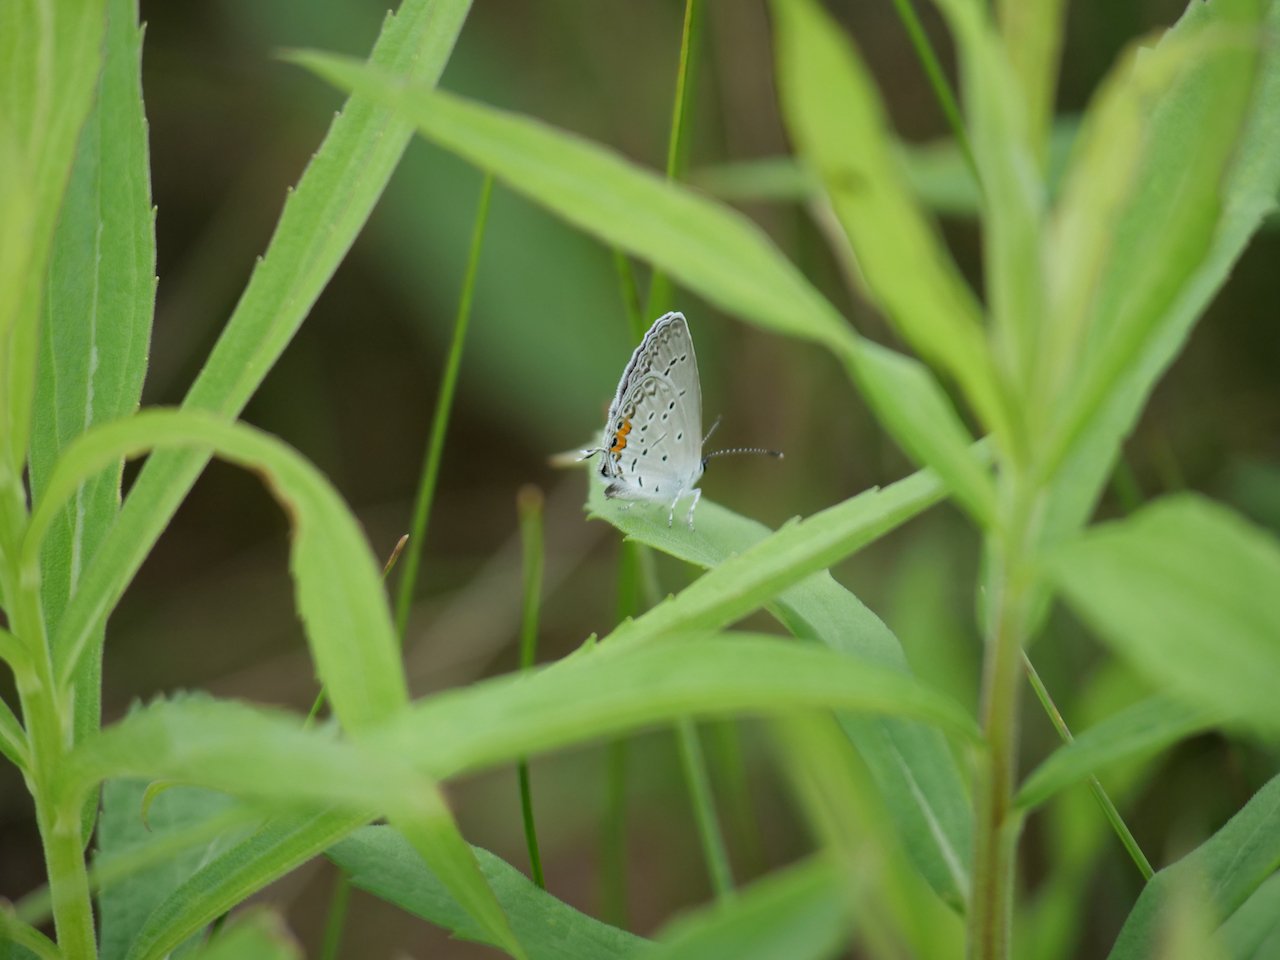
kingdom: Animalia
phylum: Arthropoda
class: Insecta
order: Lepidoptera
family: Lycaenidae
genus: Elkalyce
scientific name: Elkalyce comyntas
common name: Eastern Tailed-Blue
